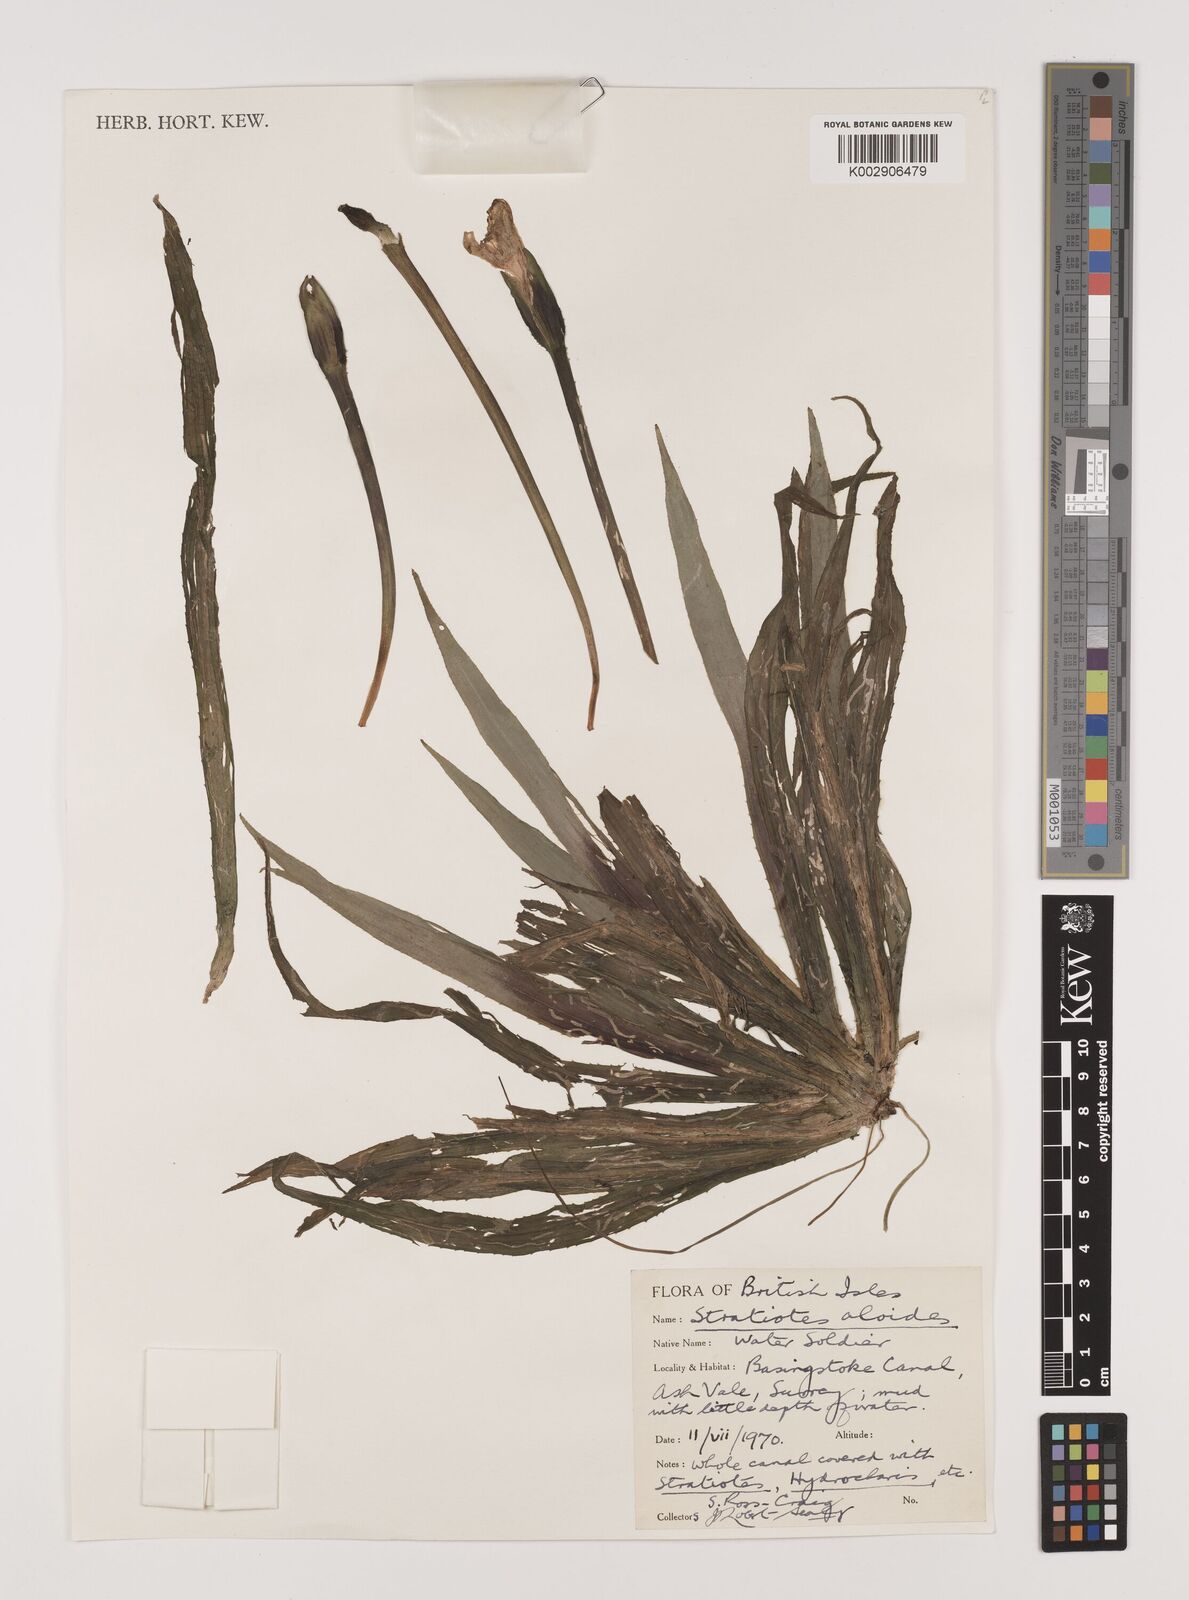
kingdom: Plantae
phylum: Tracheophyta
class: Liliopsida
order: Alismatales
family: Hydrocharitaceae
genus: Stratiotes
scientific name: Stratiotes aloides
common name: Water-soldier
